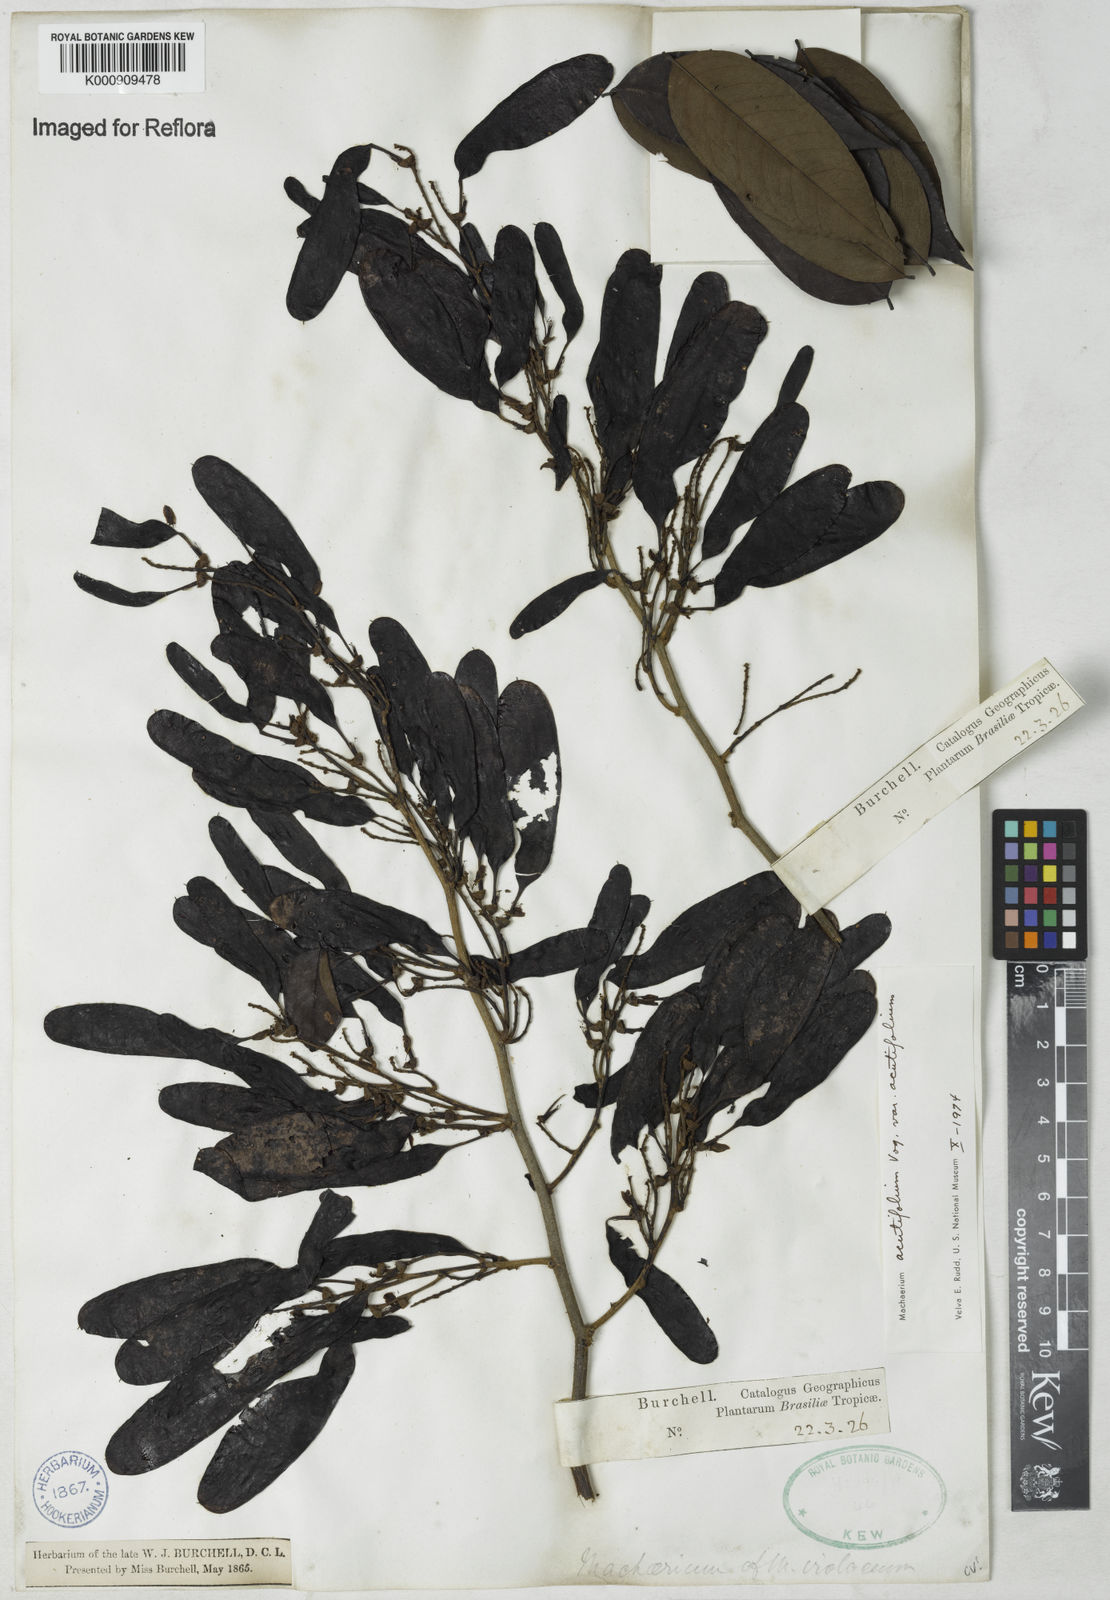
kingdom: Plantae
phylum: Tracheophyta
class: Magnoliopsida
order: Fabales
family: Fabaceae
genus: Machaerium
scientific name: Machaerium acutifolium
